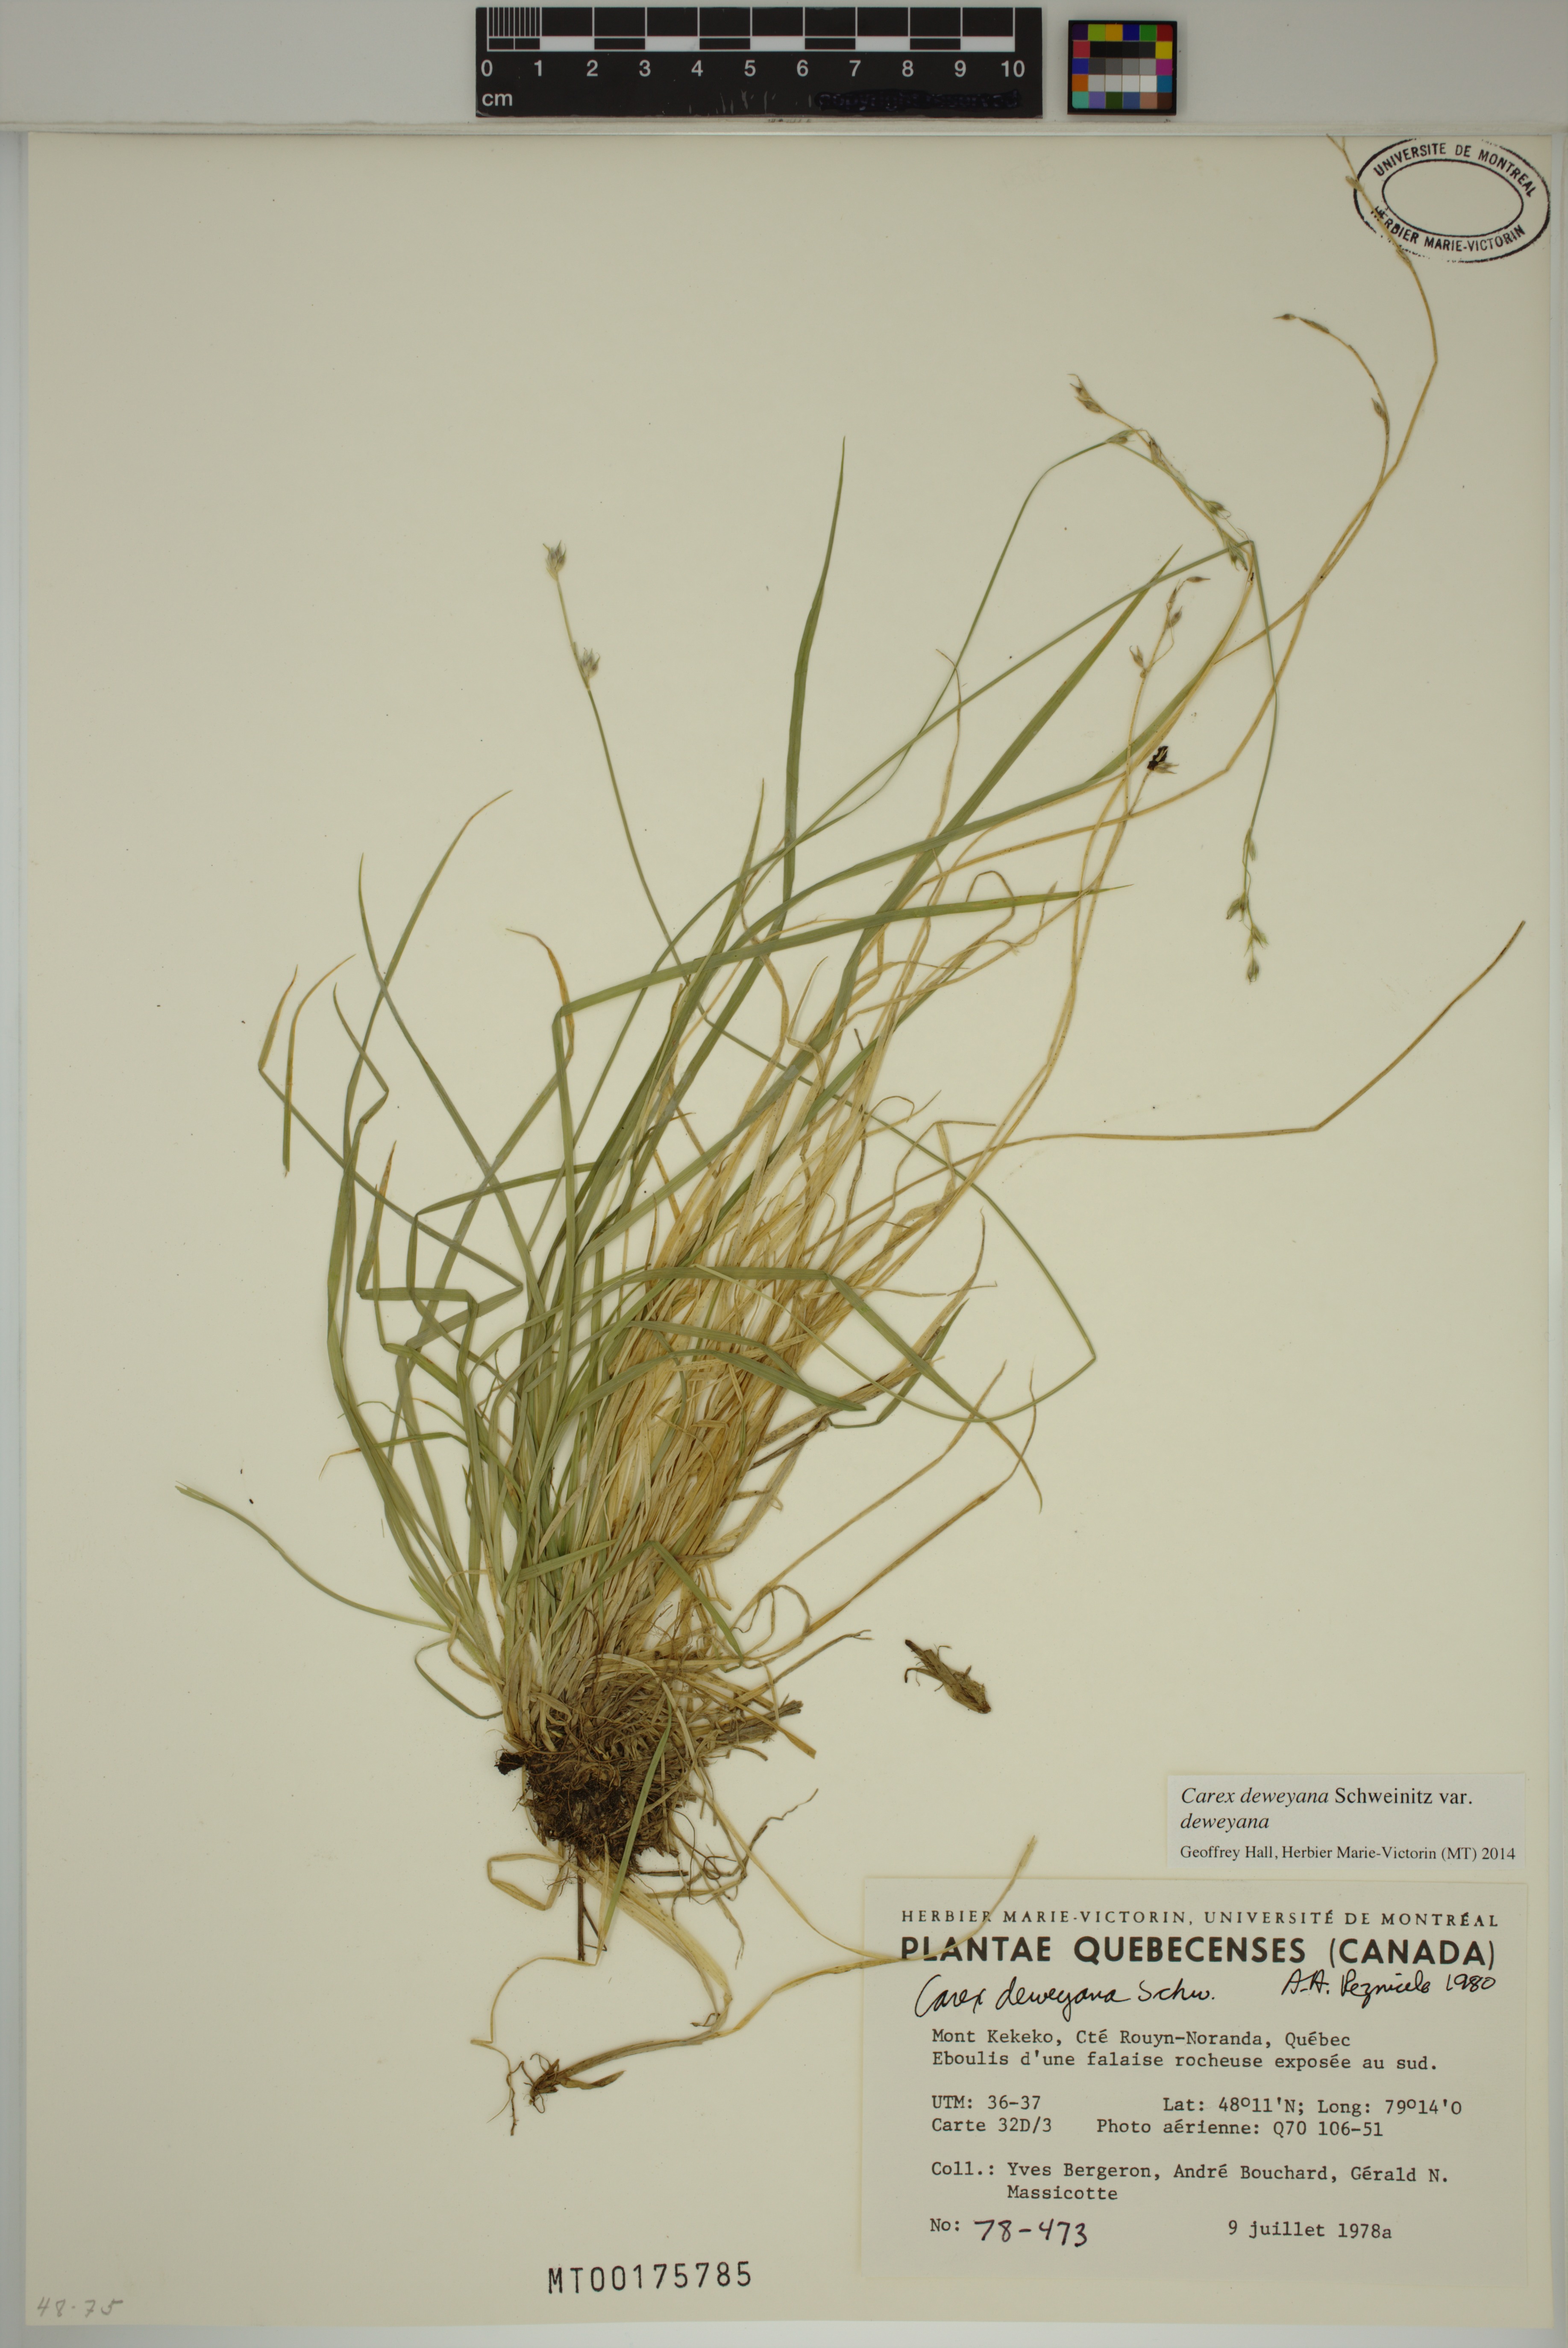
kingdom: Plantae
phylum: Tracheophyta
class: Liliopsida
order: Poales
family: Cyperaceae
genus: Carex
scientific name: Carex deweyana
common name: Dewey's sedge
